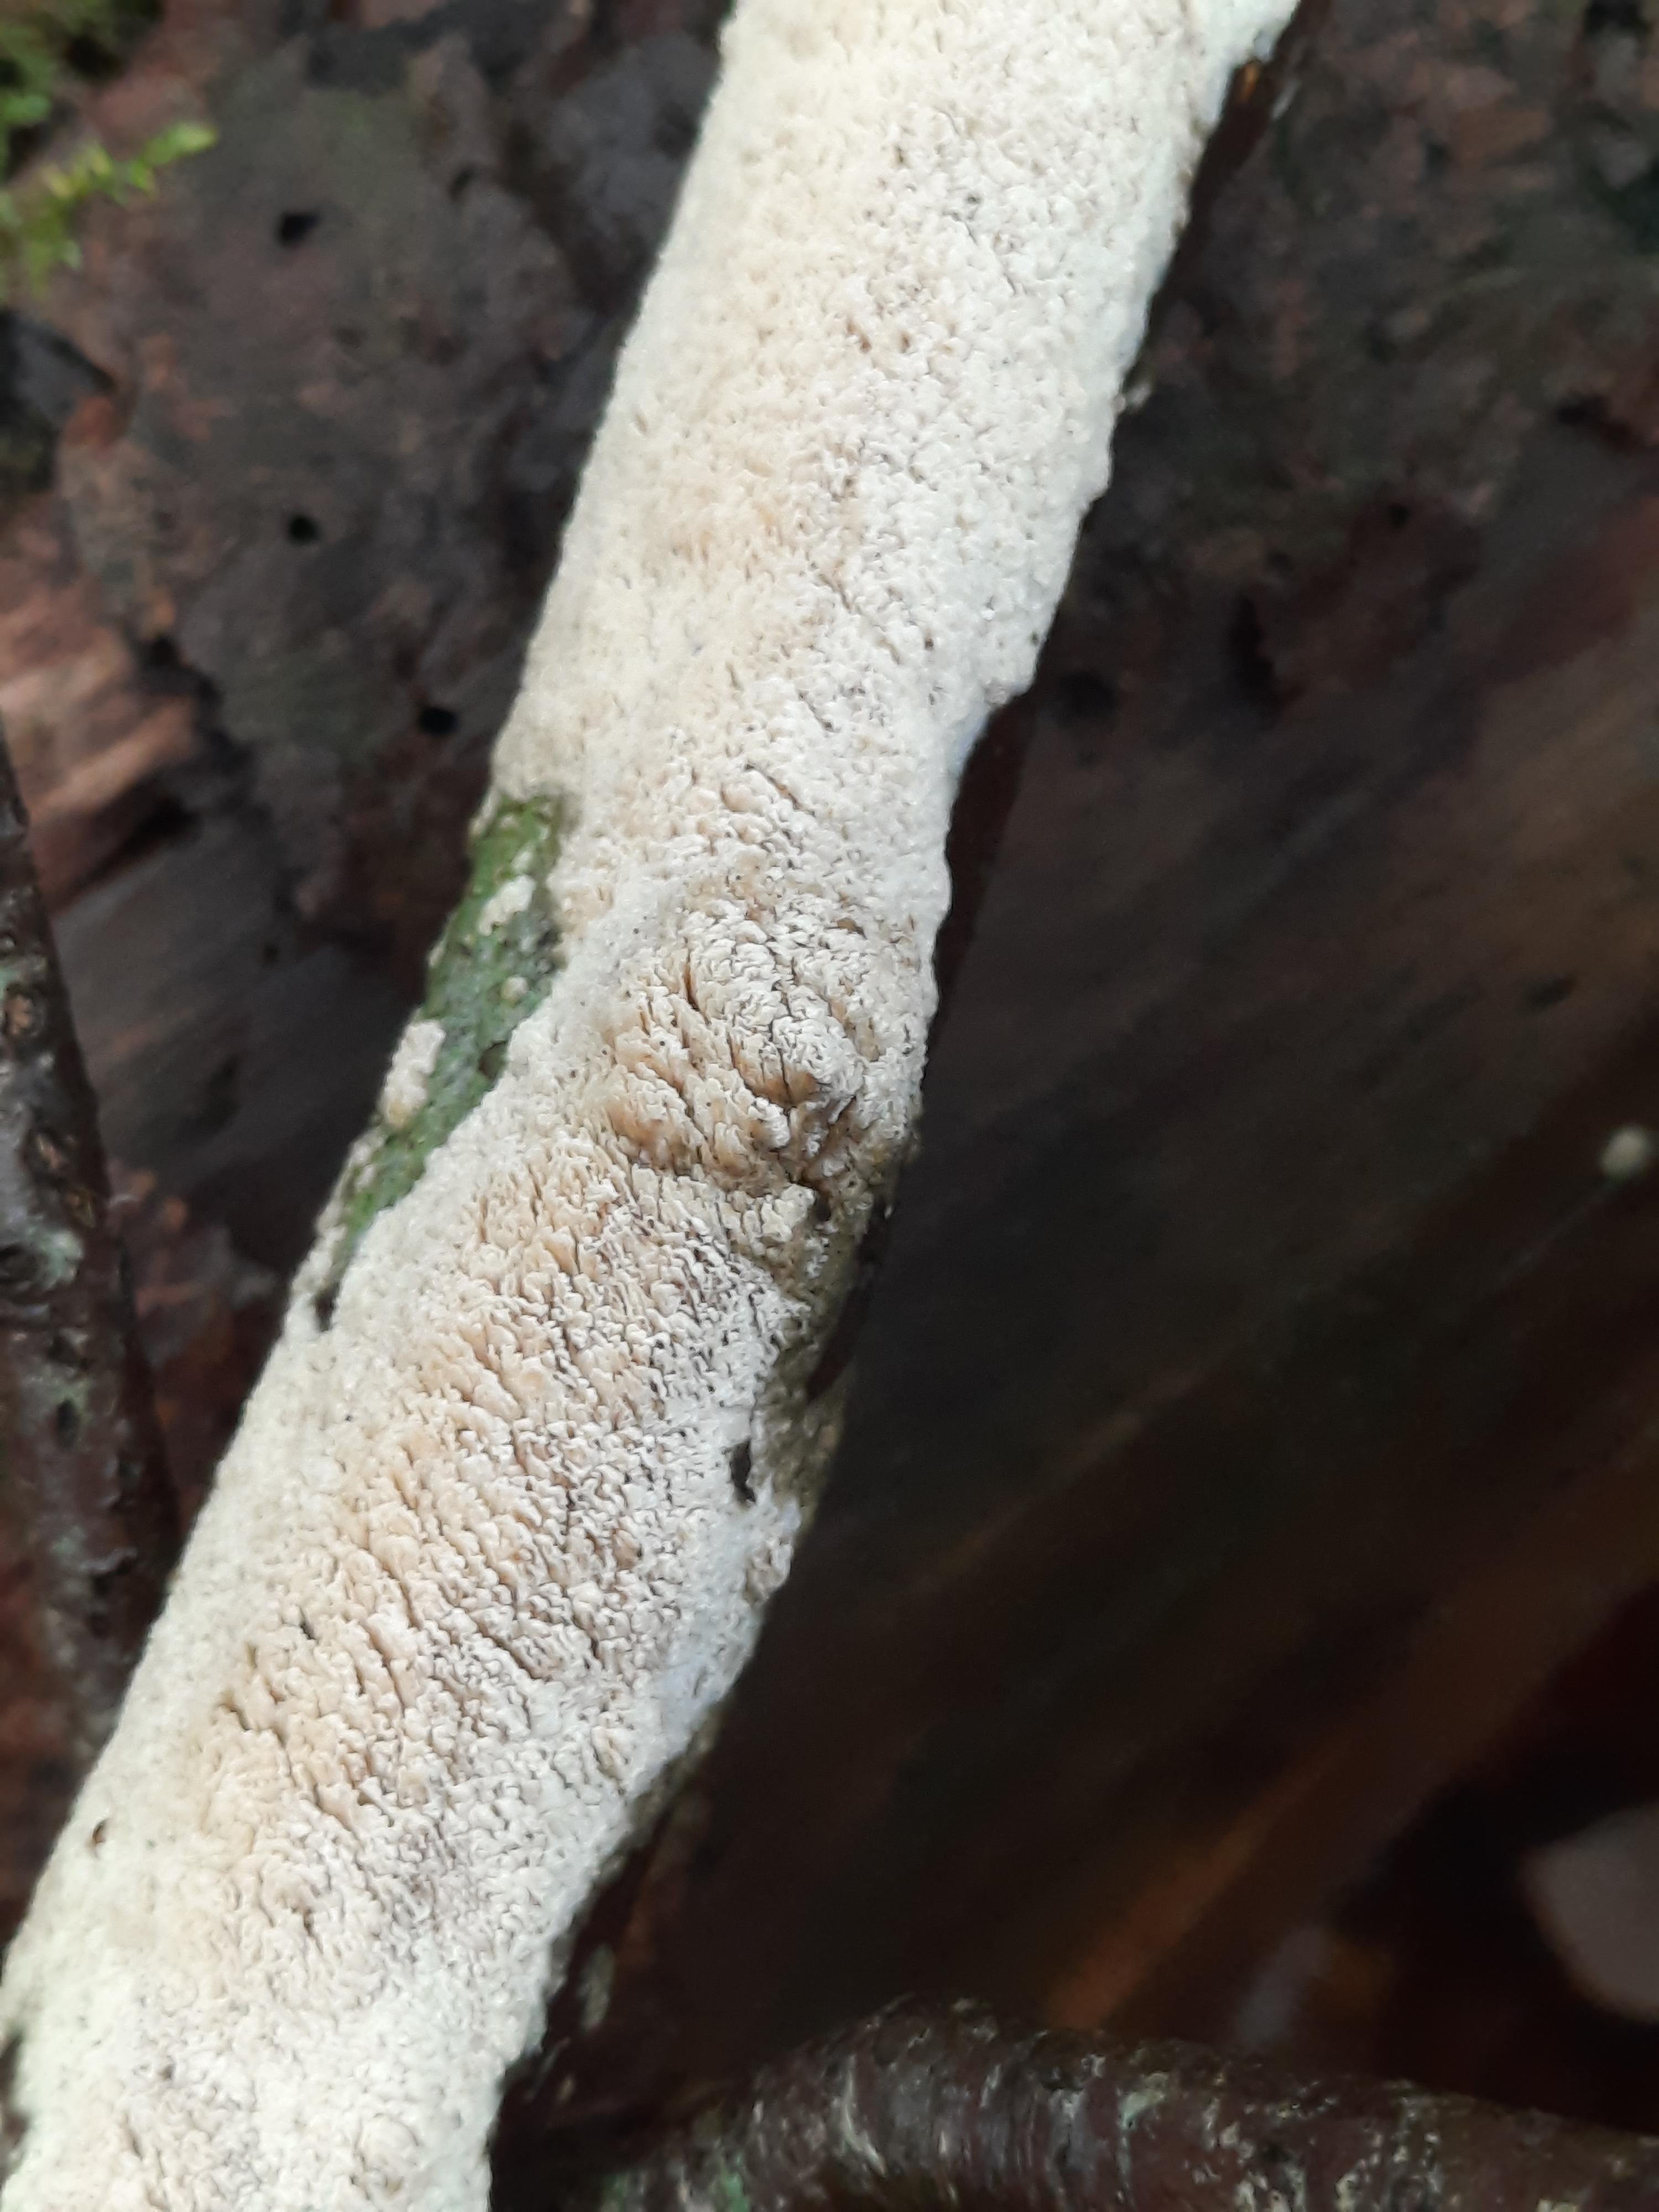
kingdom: Fungi
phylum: Basidiomycota
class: Agaricomycetes
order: Corticiales
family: Corticiaceae
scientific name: Corticiaceae
